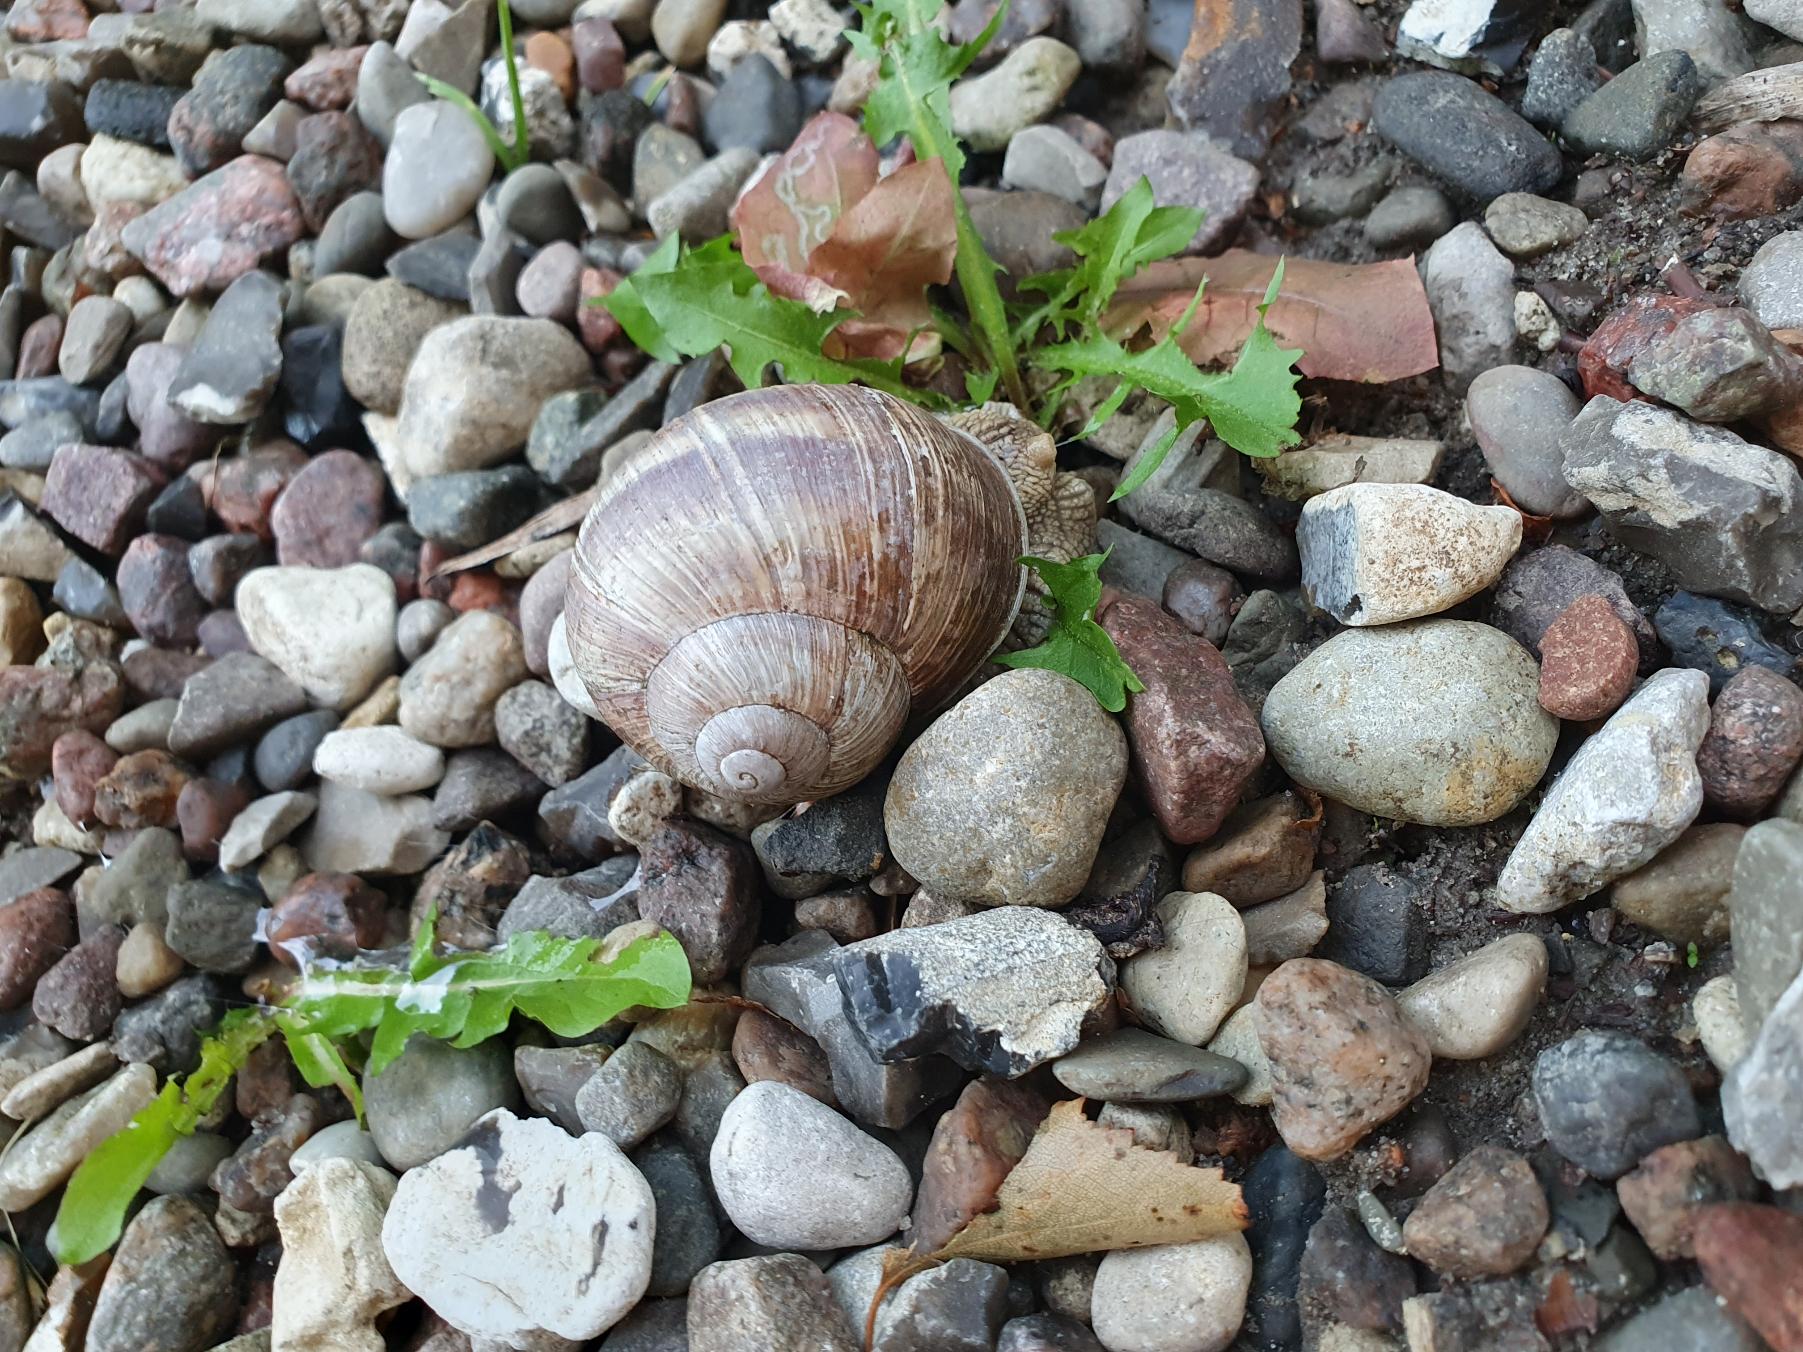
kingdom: Animalia
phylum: Mollusca
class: Gastropoda
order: Stylommatophora
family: Helicidae
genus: Helix
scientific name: Helix pomatia
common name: Vinbjergsnegl
